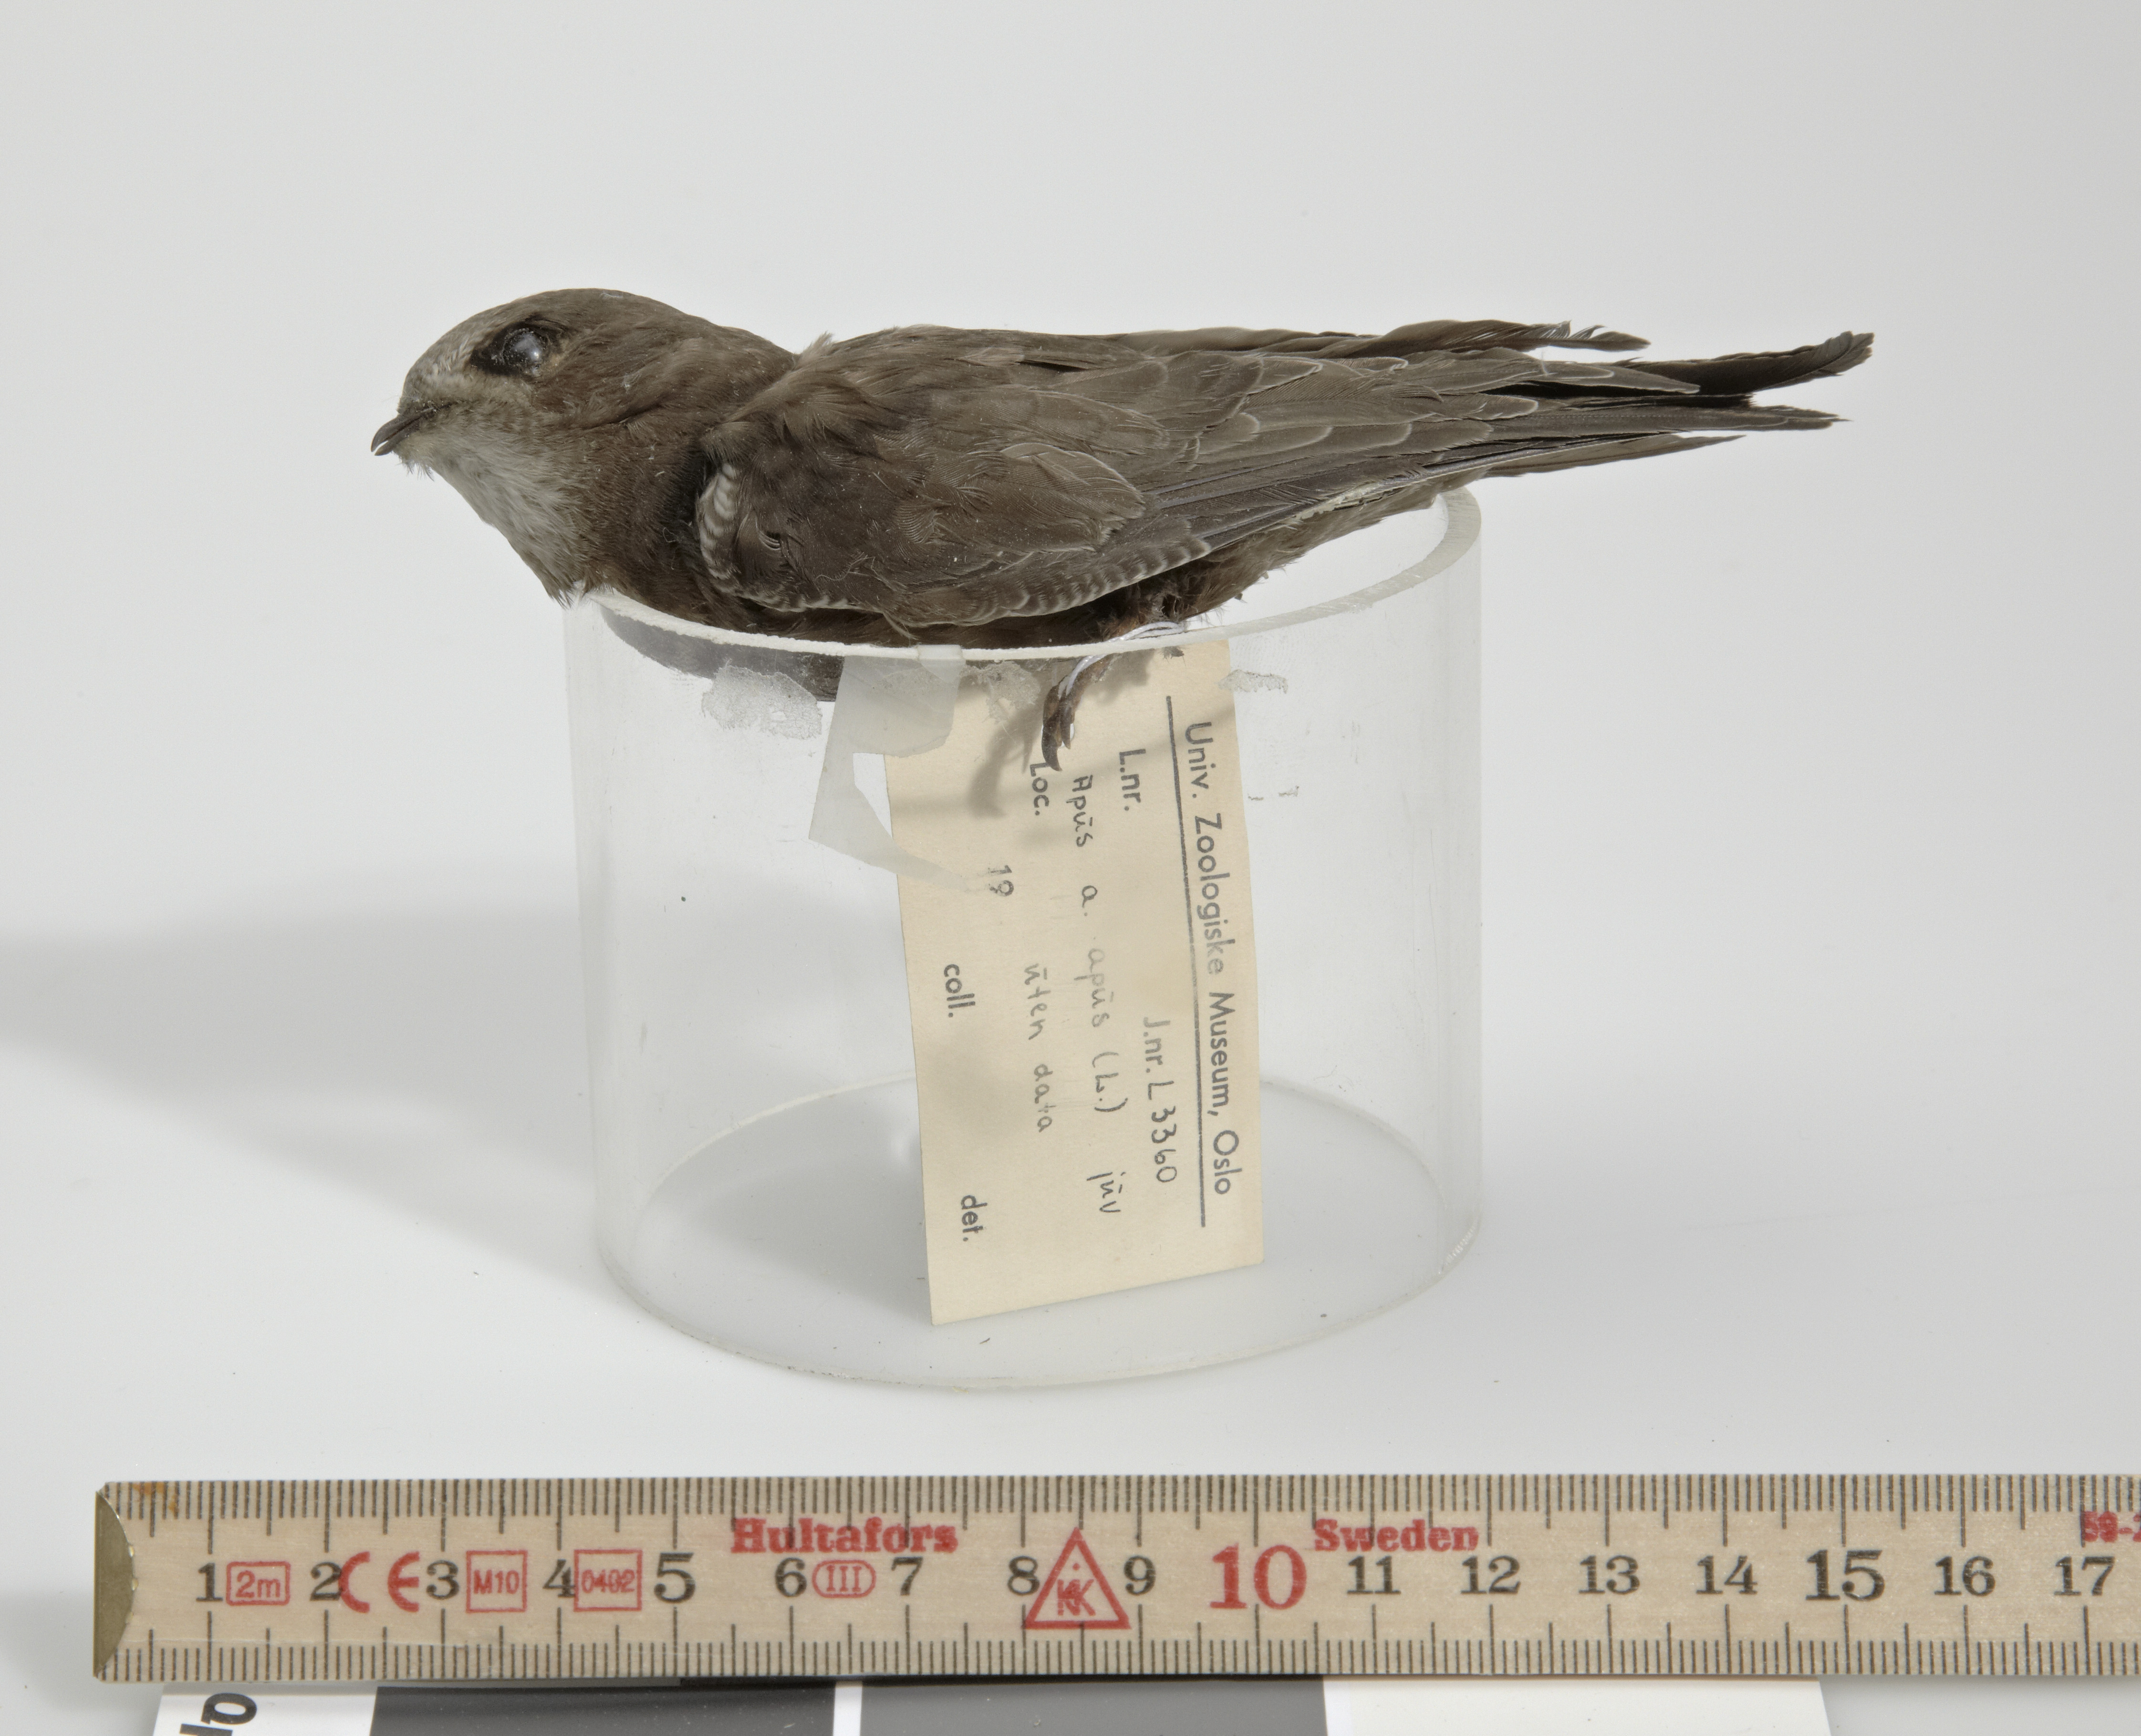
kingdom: Animalia
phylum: Chordata
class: Aves
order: Apodiformes
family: Apodidae
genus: Apus
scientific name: Apus apus
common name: Common swift
